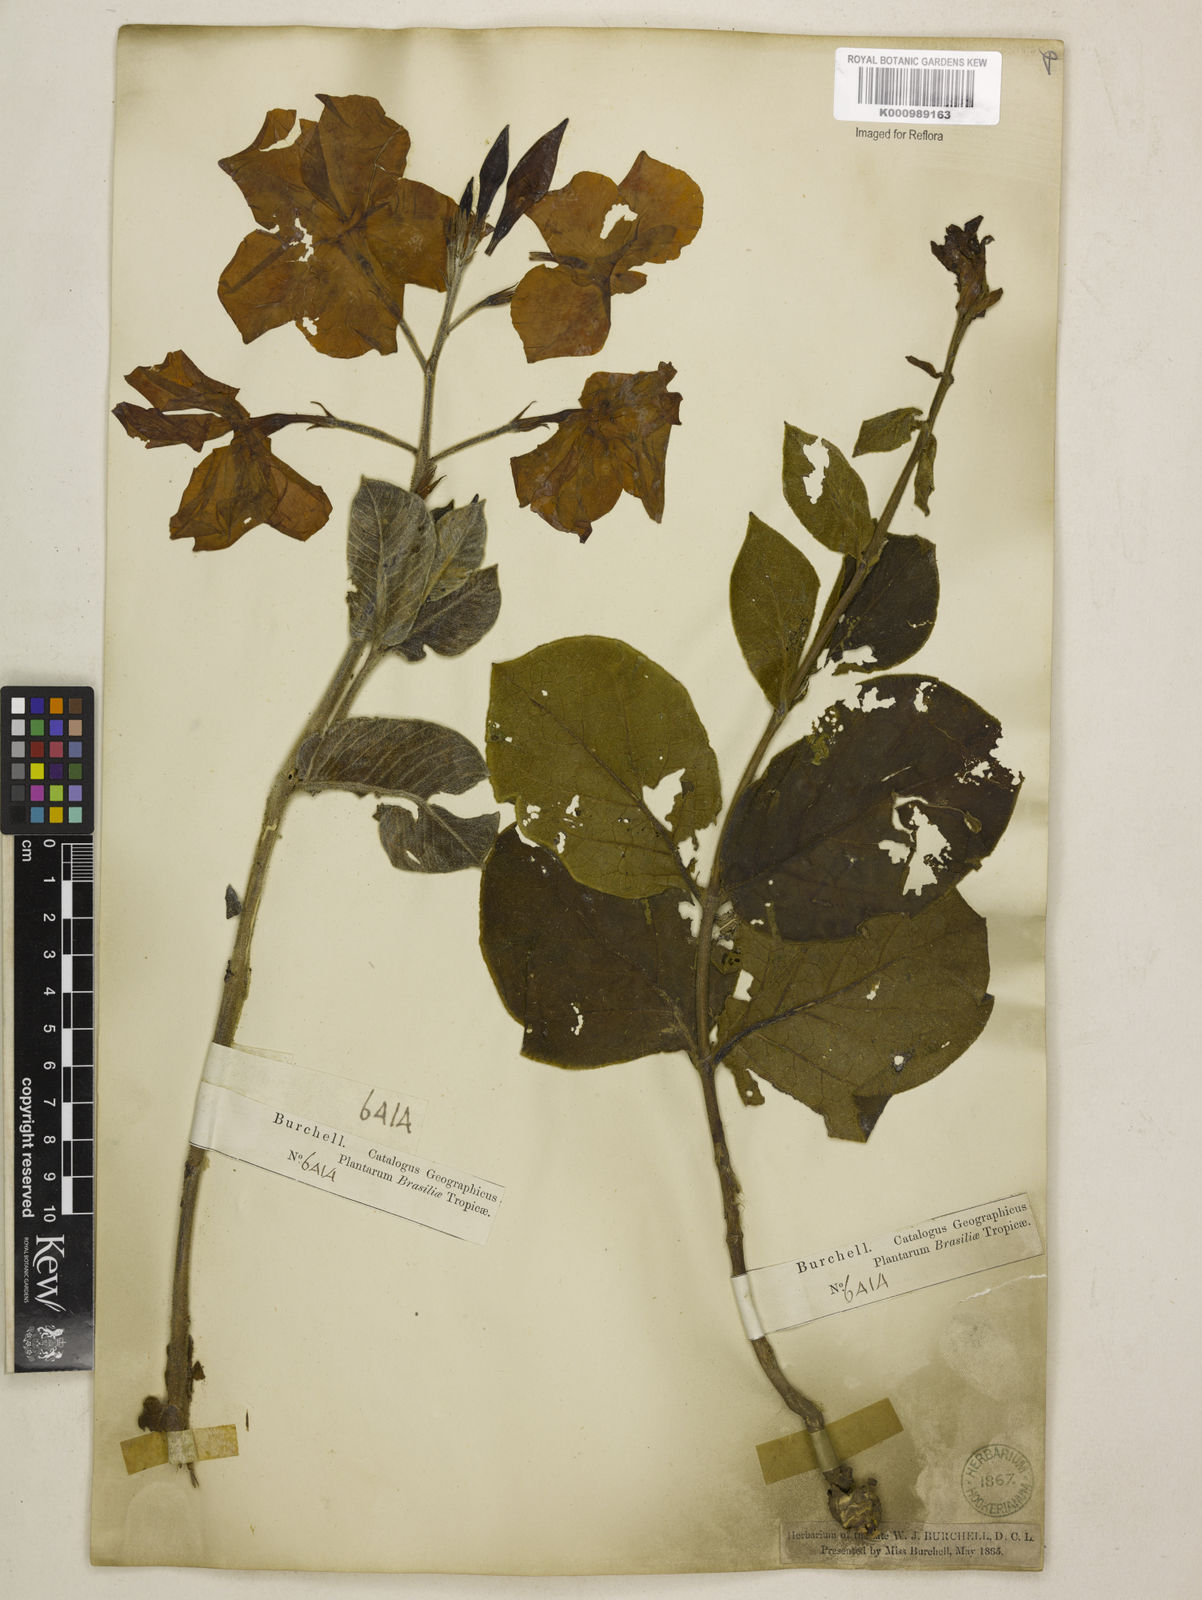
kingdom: Plantae
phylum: Tracheophyta
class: Magnoliopsida
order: Gentianales
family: Apocynaceae
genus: Mandevilla
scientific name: Mandevilla illustris
